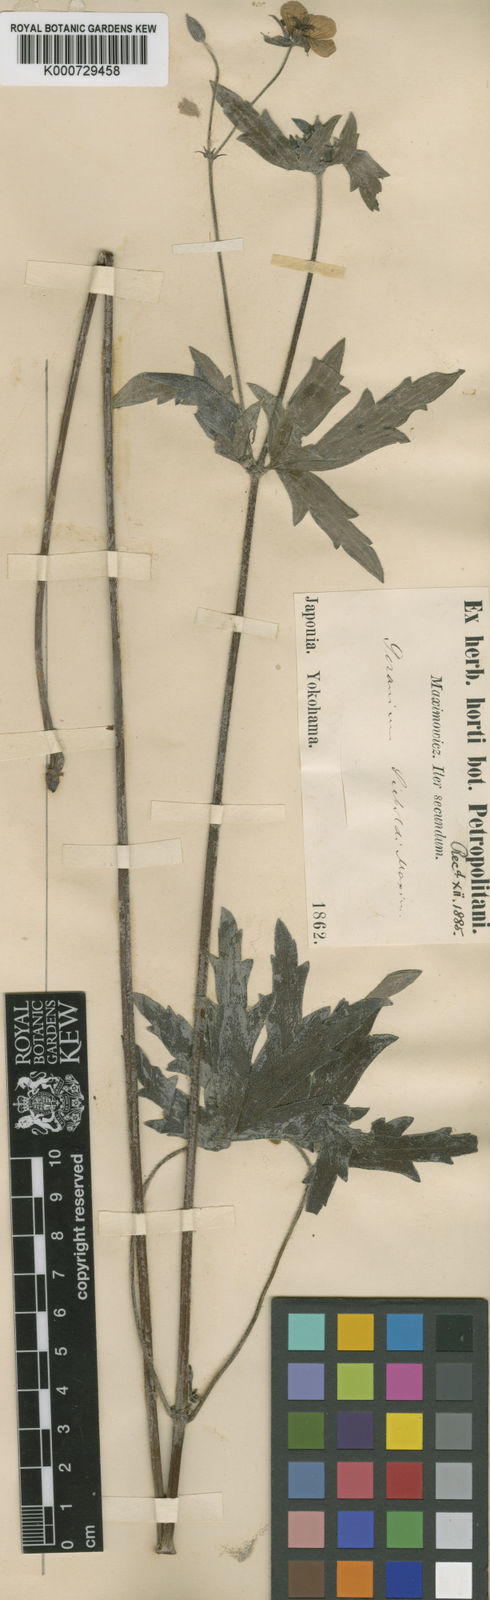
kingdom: Plantae
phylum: Tracheophyta
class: Magnoliopsida
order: Geraniales
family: Geraniaceae
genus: Geranium
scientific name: Geranium krameri
